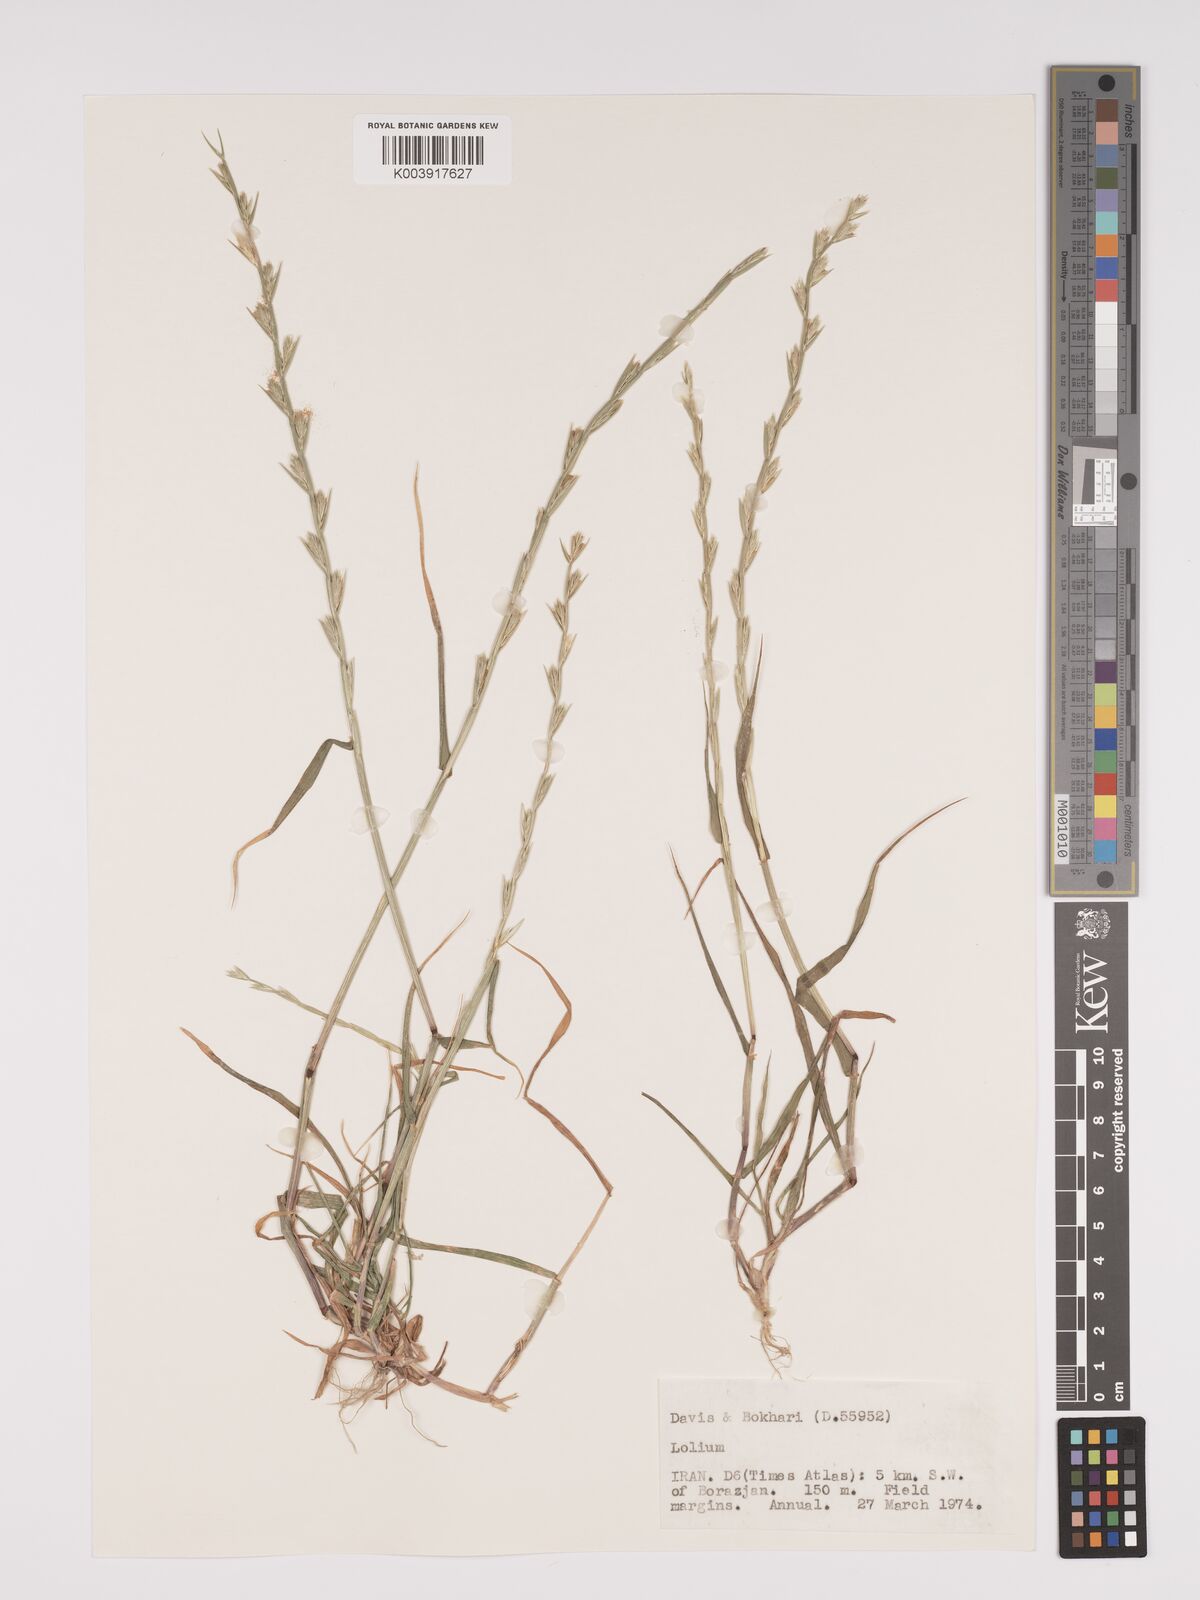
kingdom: Plantae
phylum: Tracheophyta
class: Liliopsida
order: Poales
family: Poaceae
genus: Lolium
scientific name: Lolium
